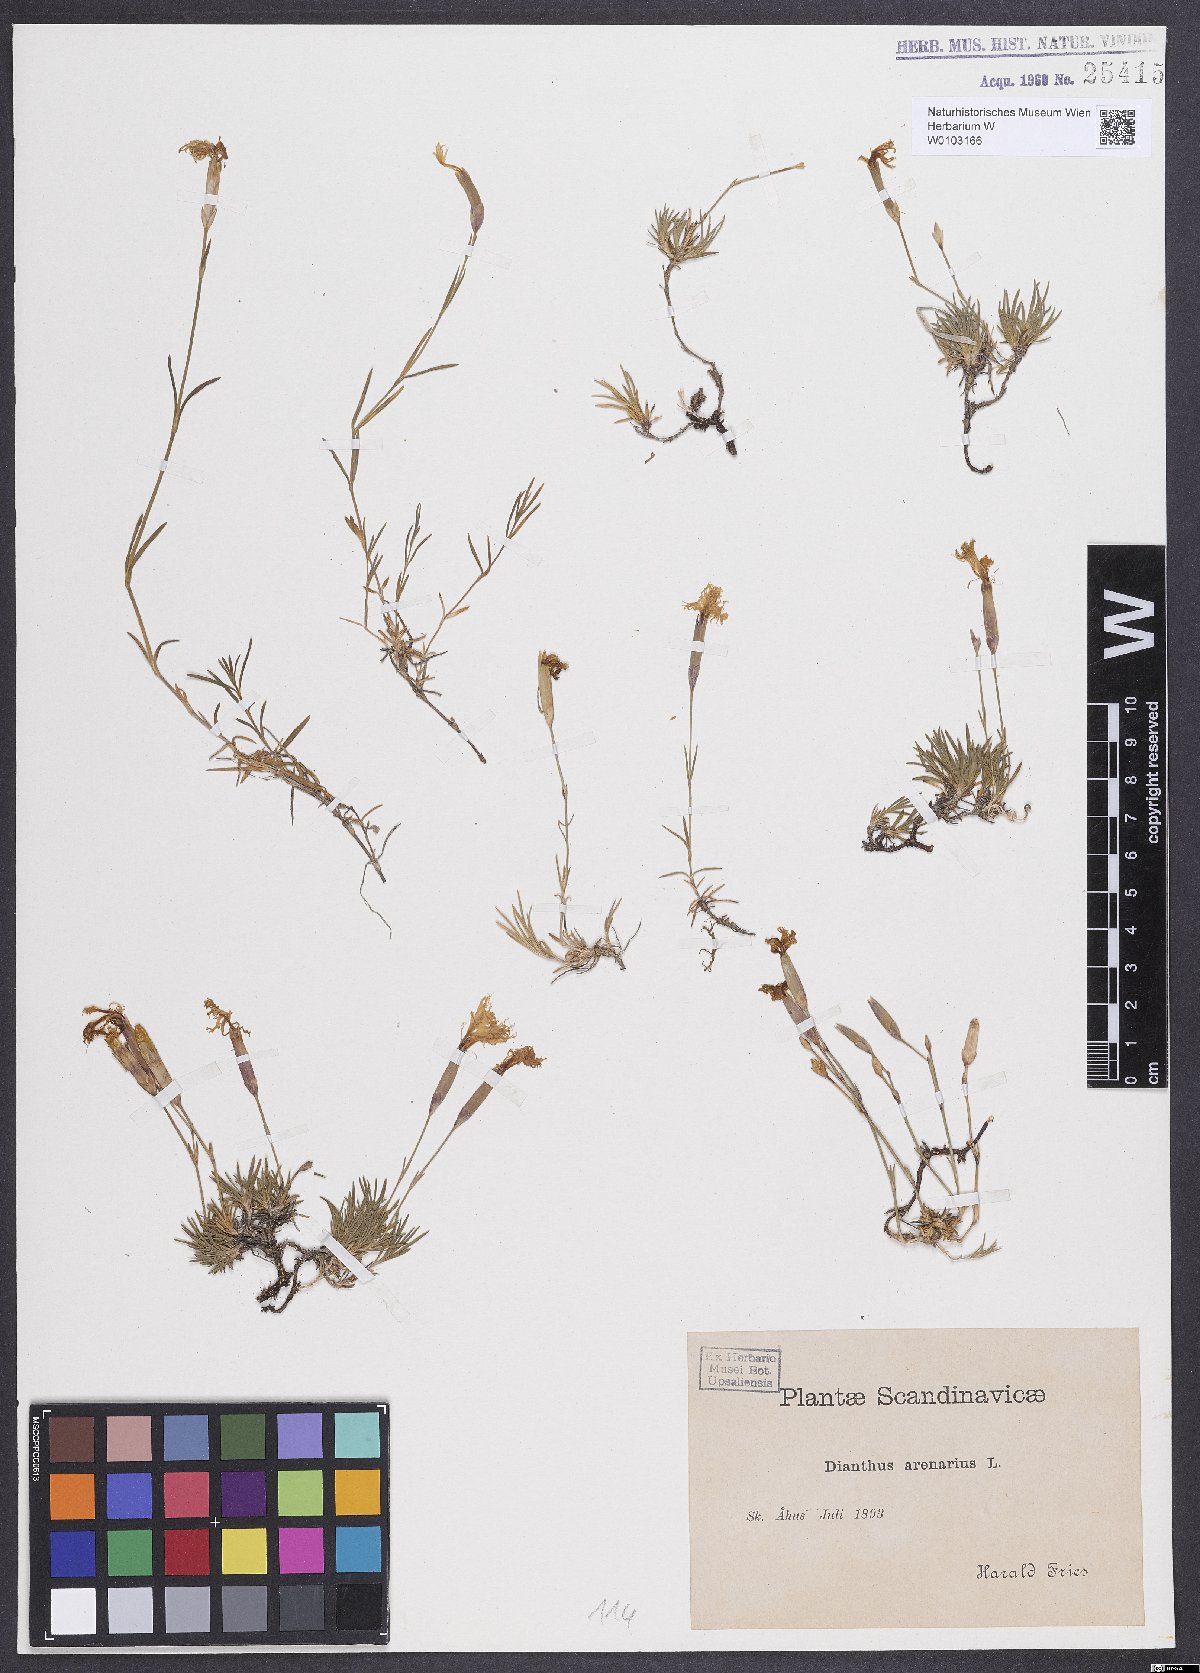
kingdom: Plantae
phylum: Tracheophyta
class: Magnoliopsida
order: Caryophyllales
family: Caryophyllaceae
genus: Dianthus
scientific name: Dianthus arenarius
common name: Stone pink
